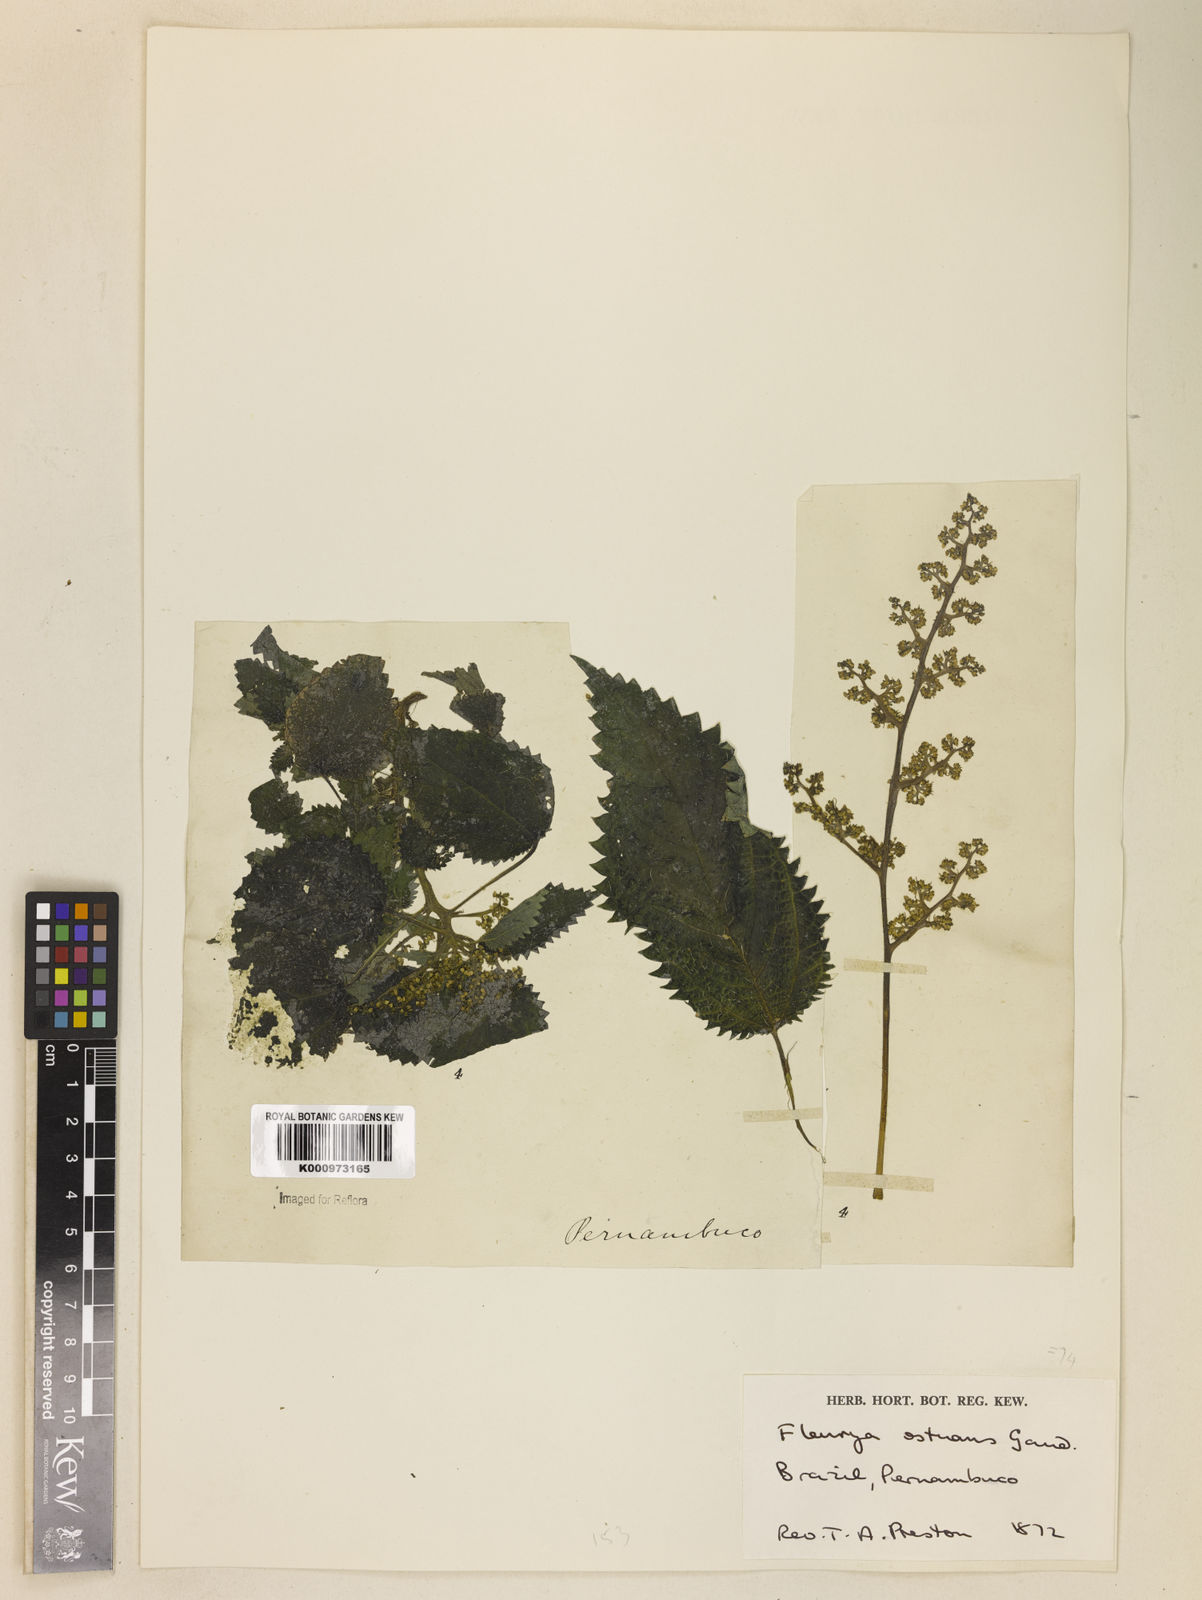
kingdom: Plantae
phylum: Tracheophyta
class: Magnoliopsida
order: Rosales
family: Urticaceae
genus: Laportea
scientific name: Laportea aestuans
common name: West indian woodnettle
